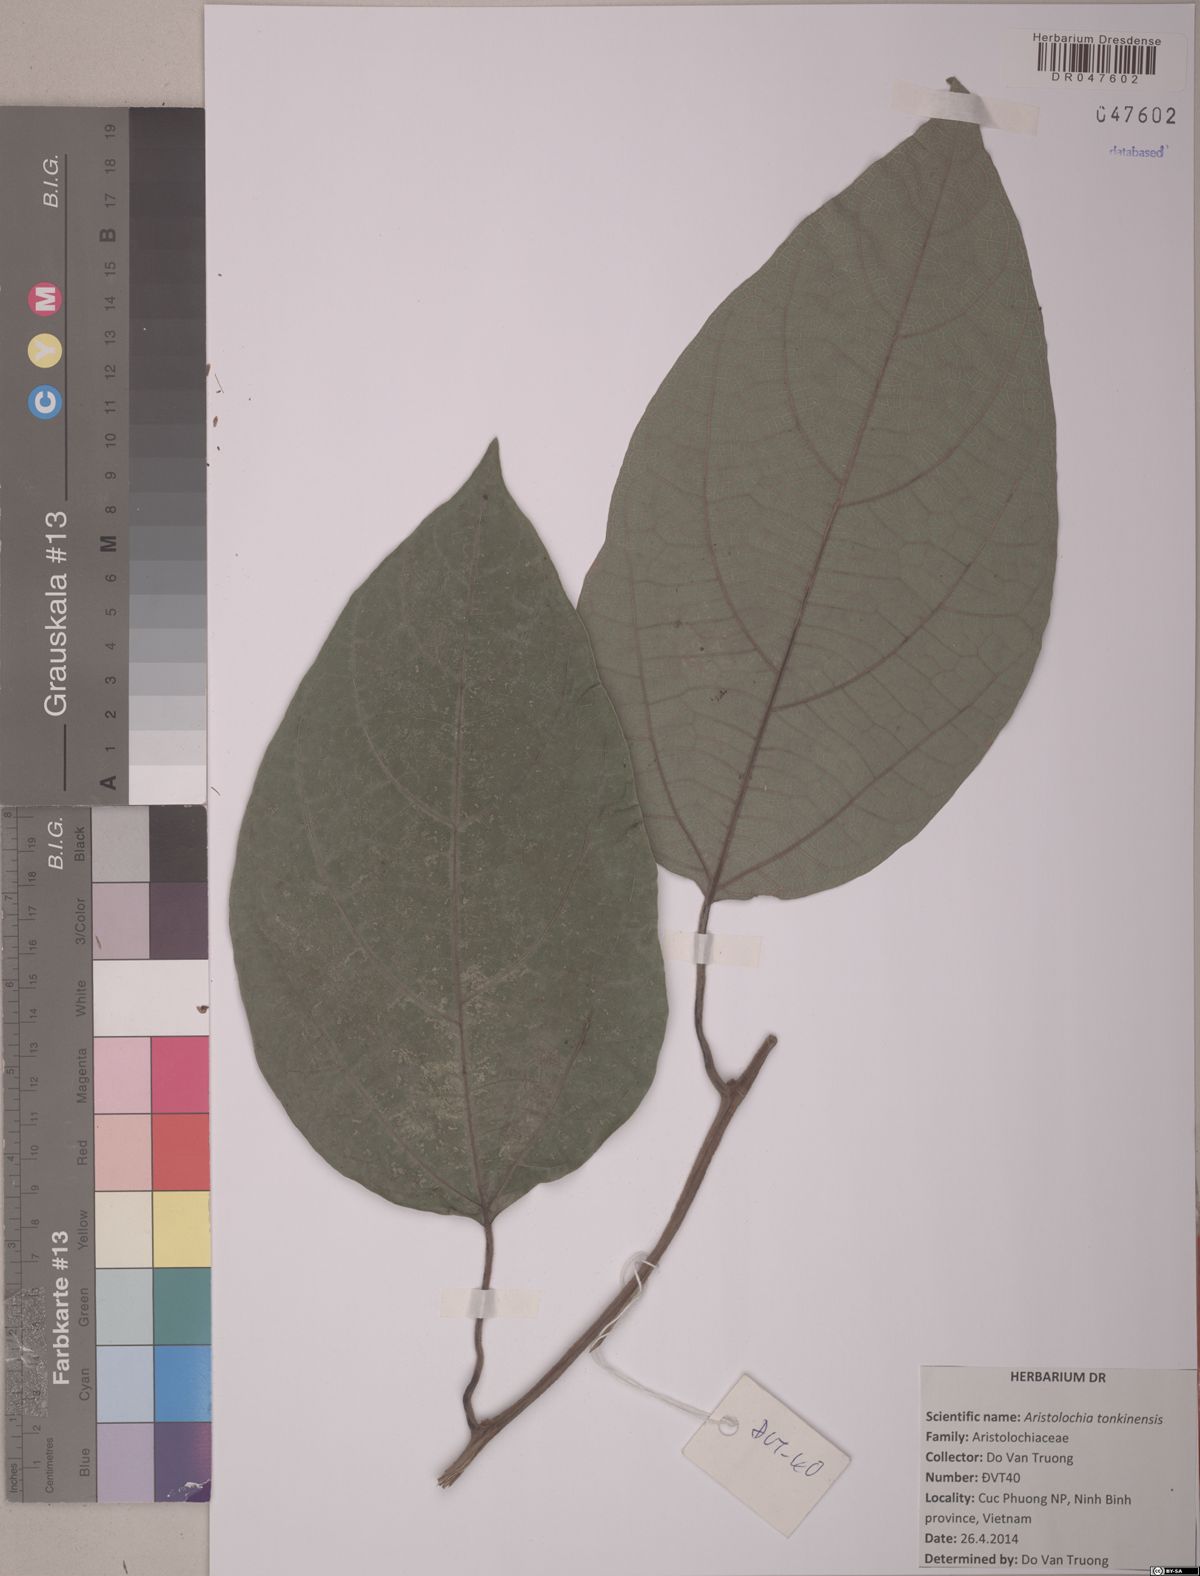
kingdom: Plantae
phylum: Tracheophyta
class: Magnoliopsida
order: Piperales
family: Aristolochiaceae
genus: Isotrema
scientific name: Isotrema tonkinense
